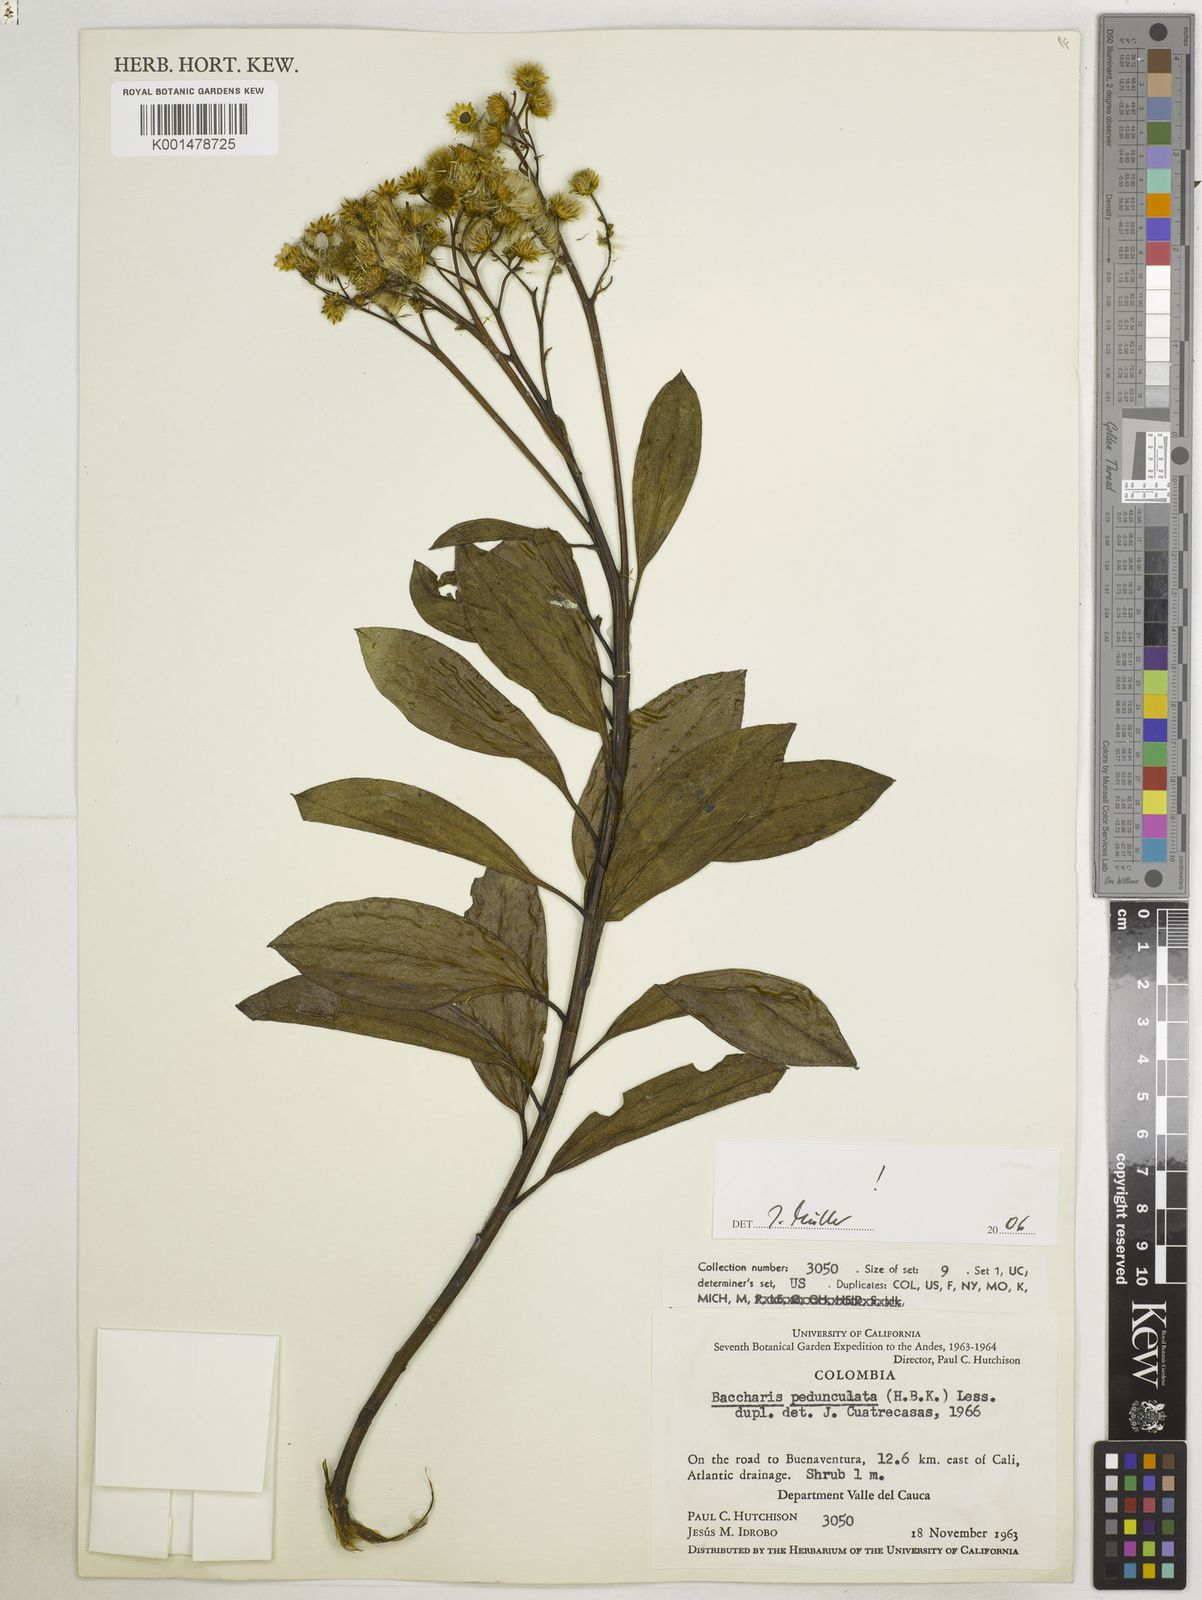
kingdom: Plantae
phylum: Tracheophyta
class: Magnoliopsida
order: Asterales
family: Asteraceae
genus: Baccharis
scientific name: Baccharis pedunculata
